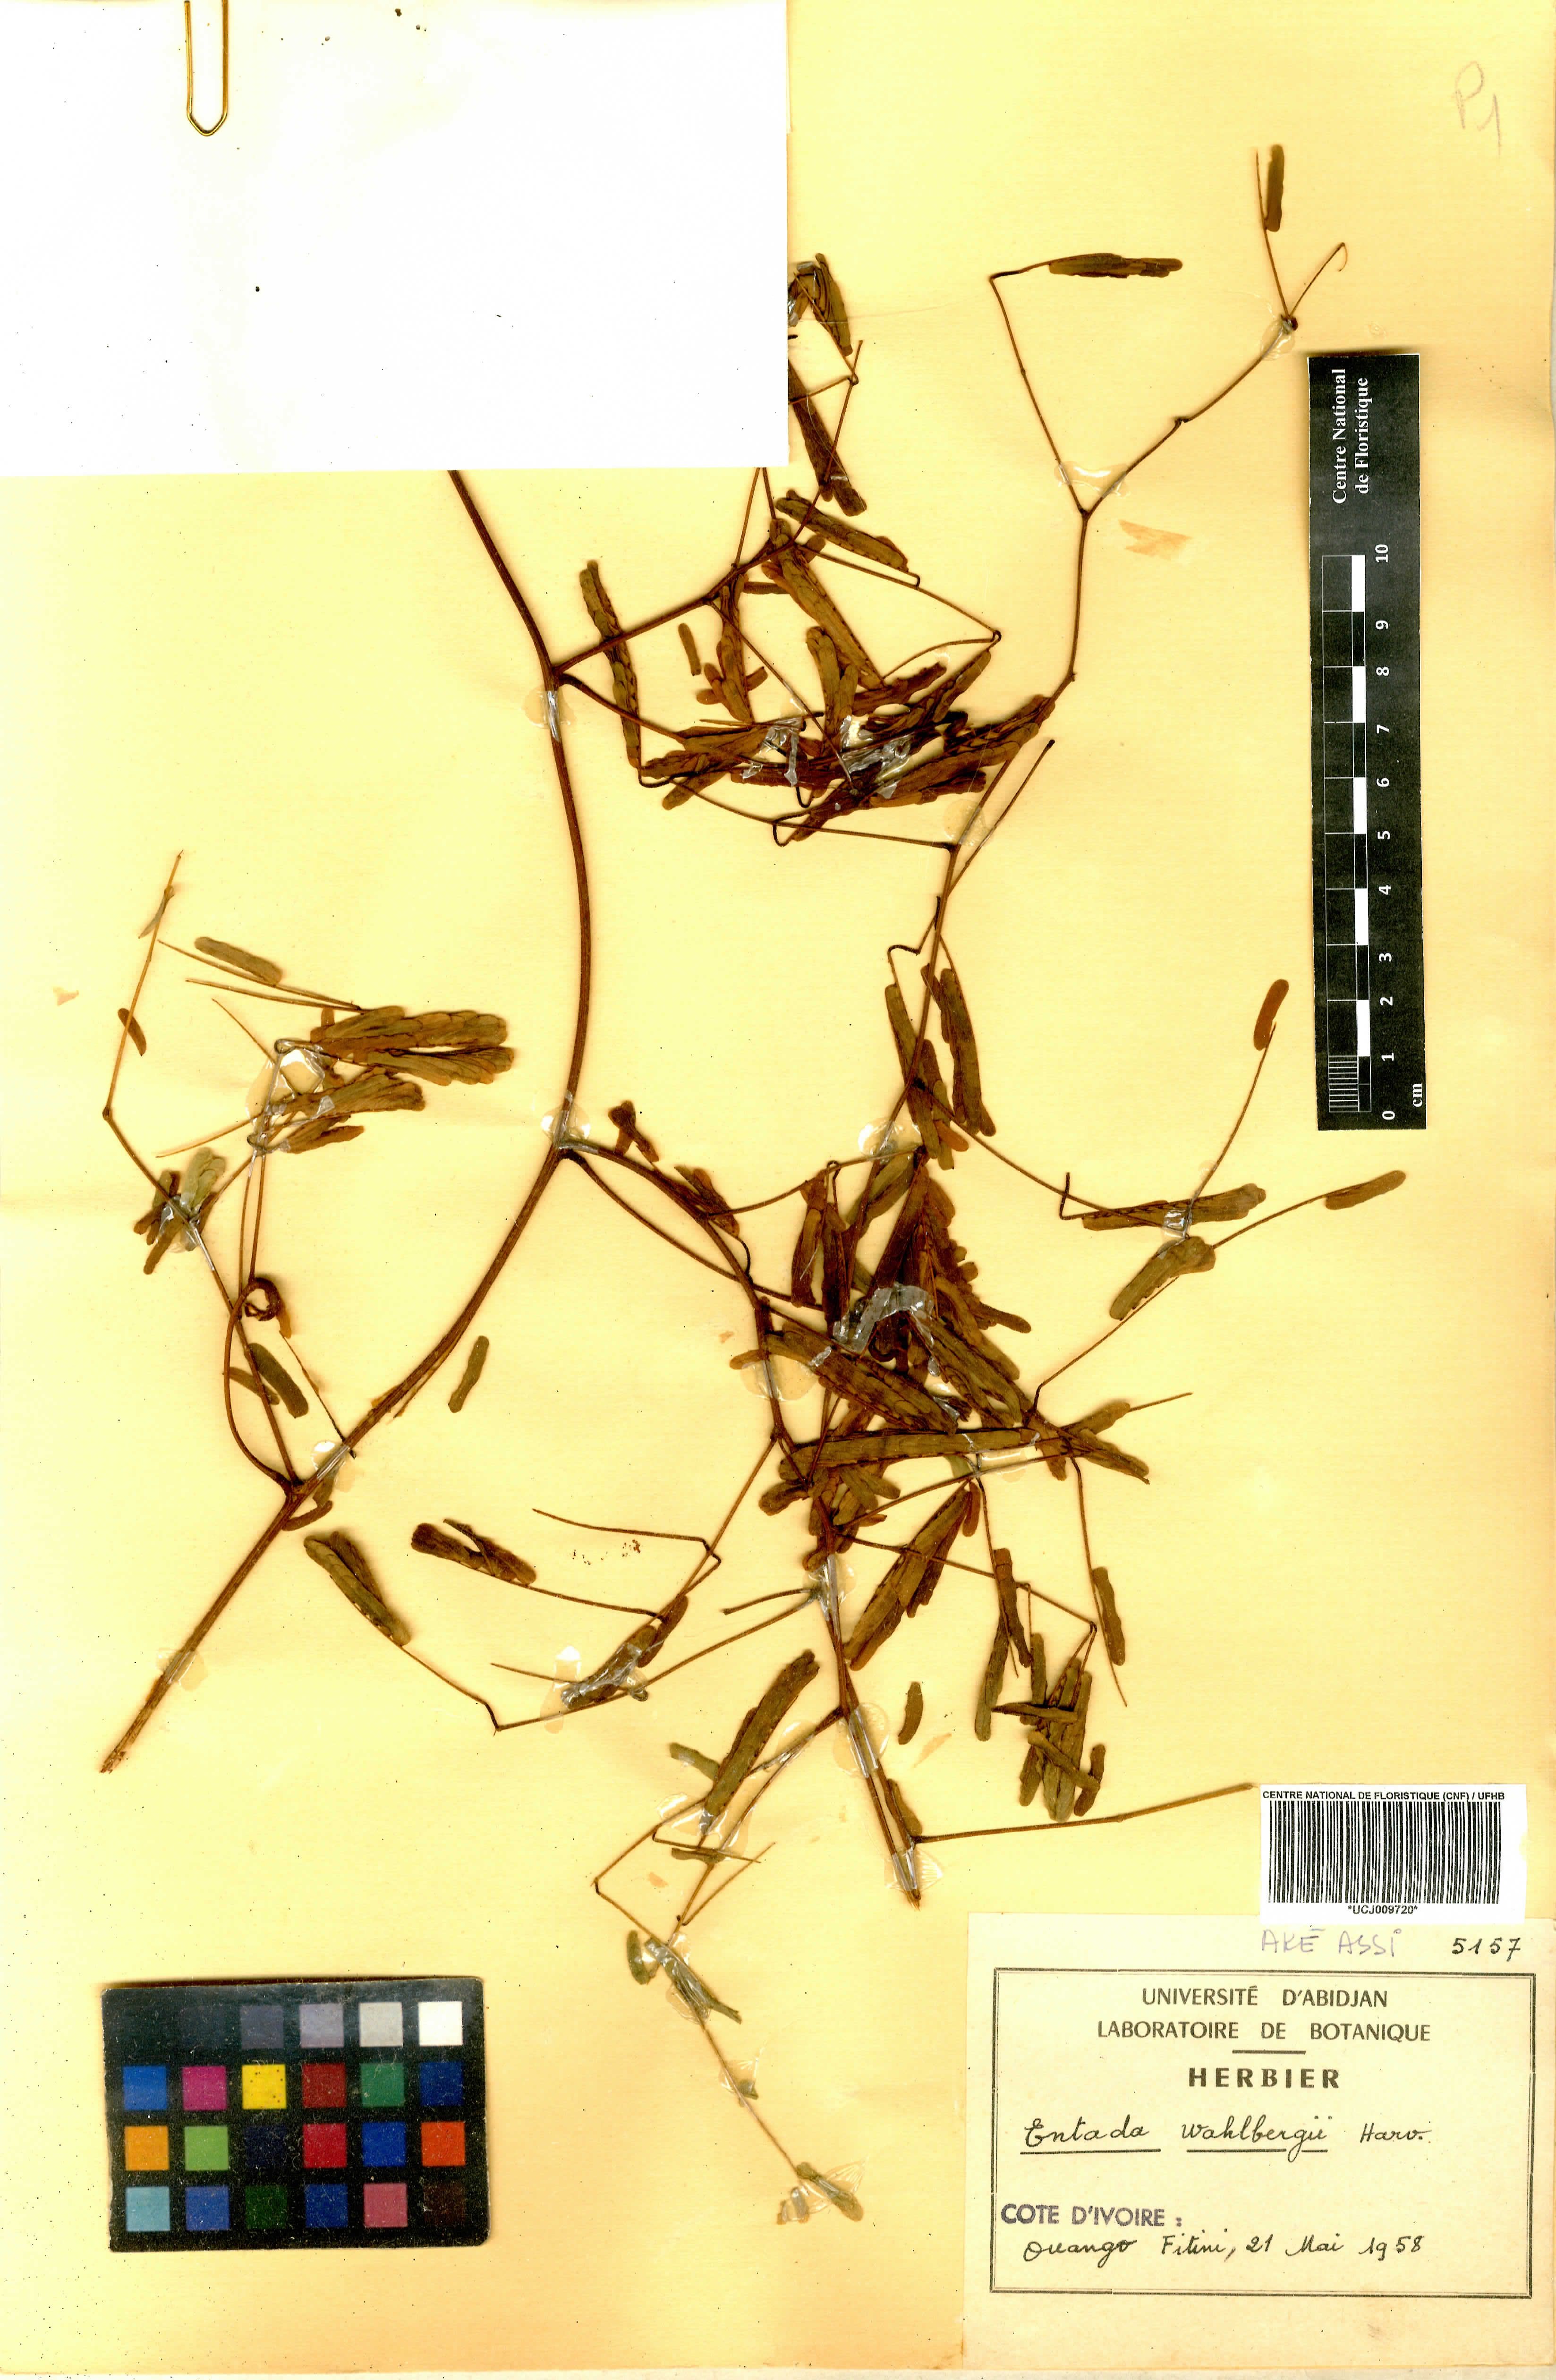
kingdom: Plantae
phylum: Tracheophyta
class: Magnoliopsida
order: Fabales
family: Fabaceae
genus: Entada
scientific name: Entada wahlbergii
